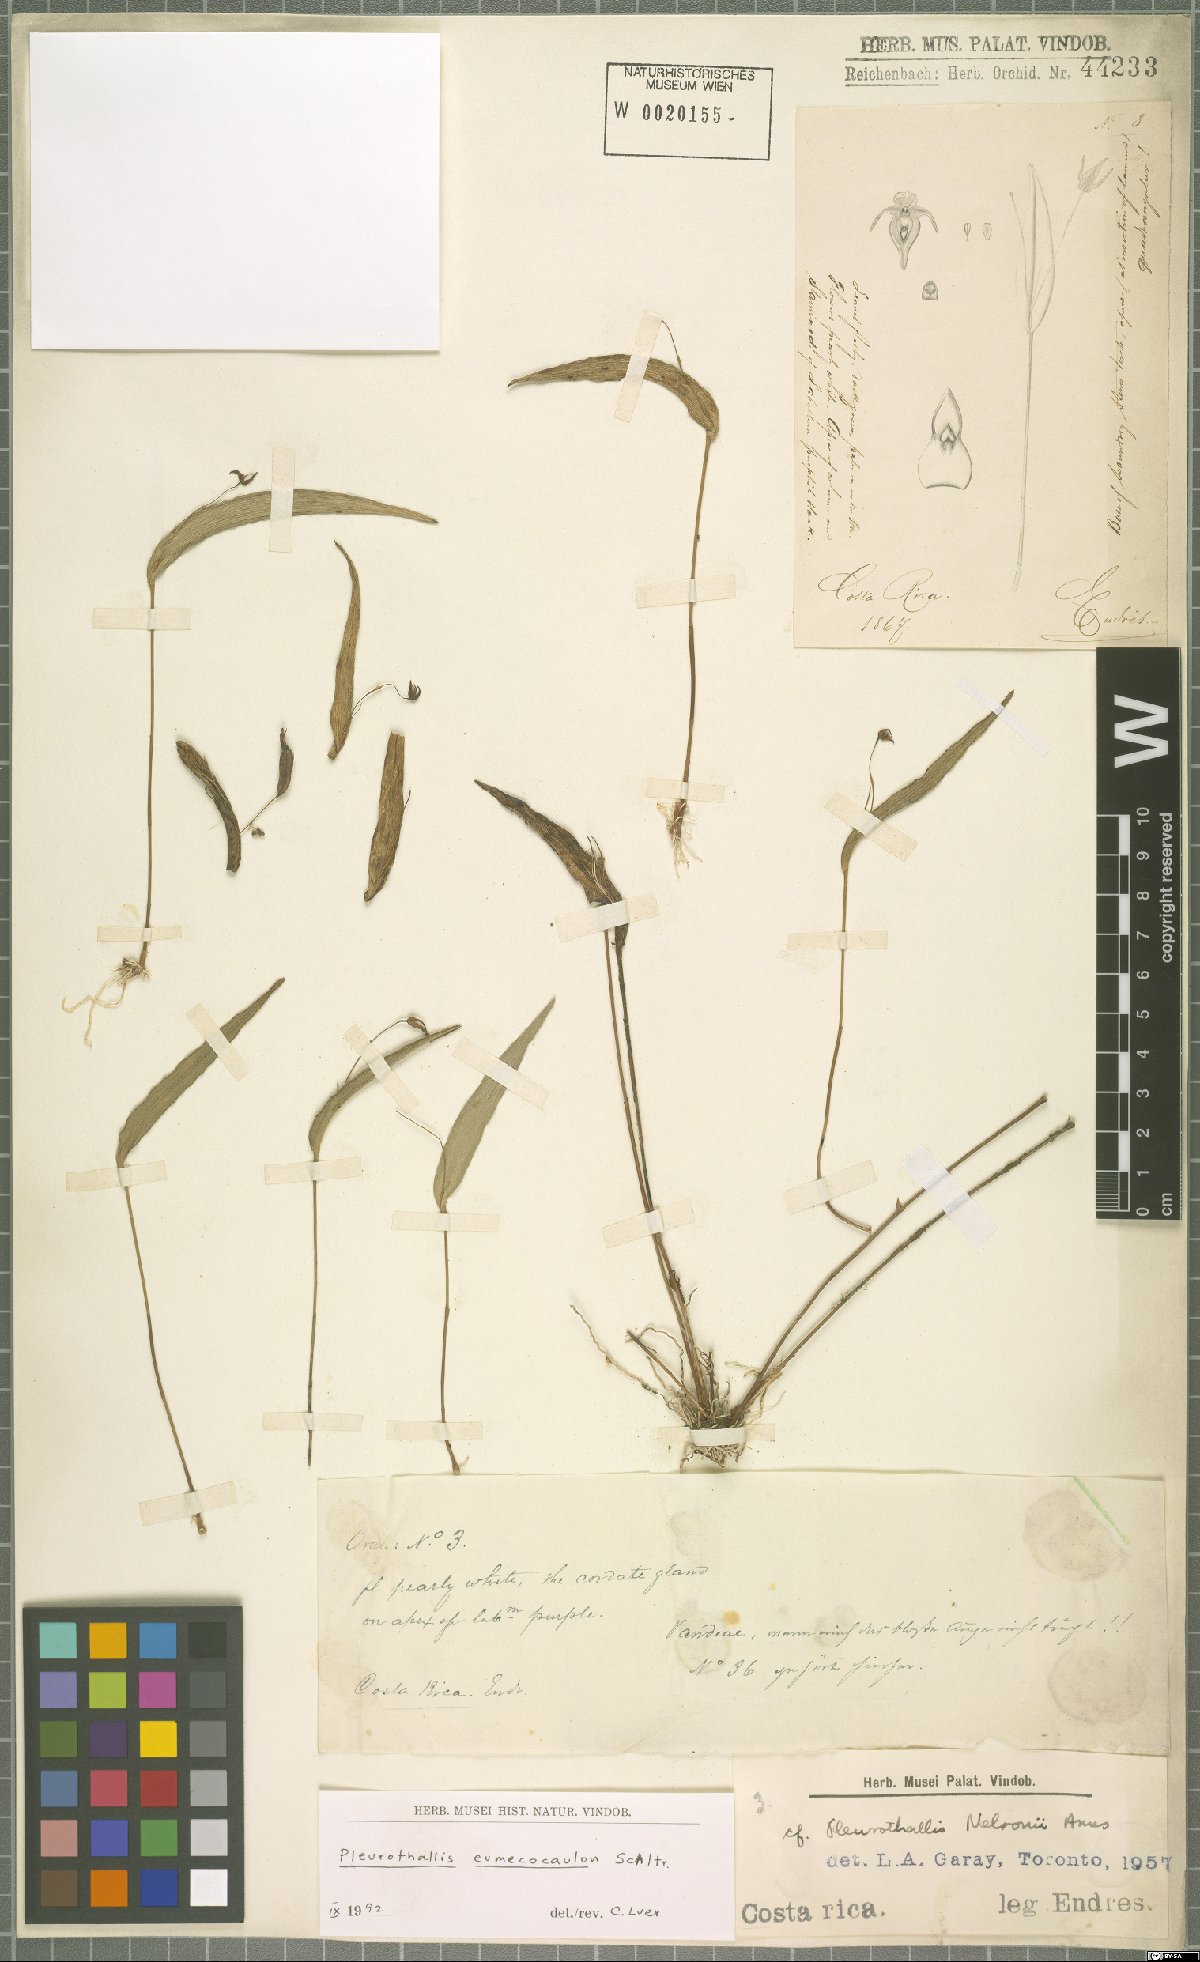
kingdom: Plantae
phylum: Tracheophyta
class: Liliopsida
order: Asparagales
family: Orchidaceae
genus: Pleurothallis
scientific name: Pleurothallis eumecocaulon
